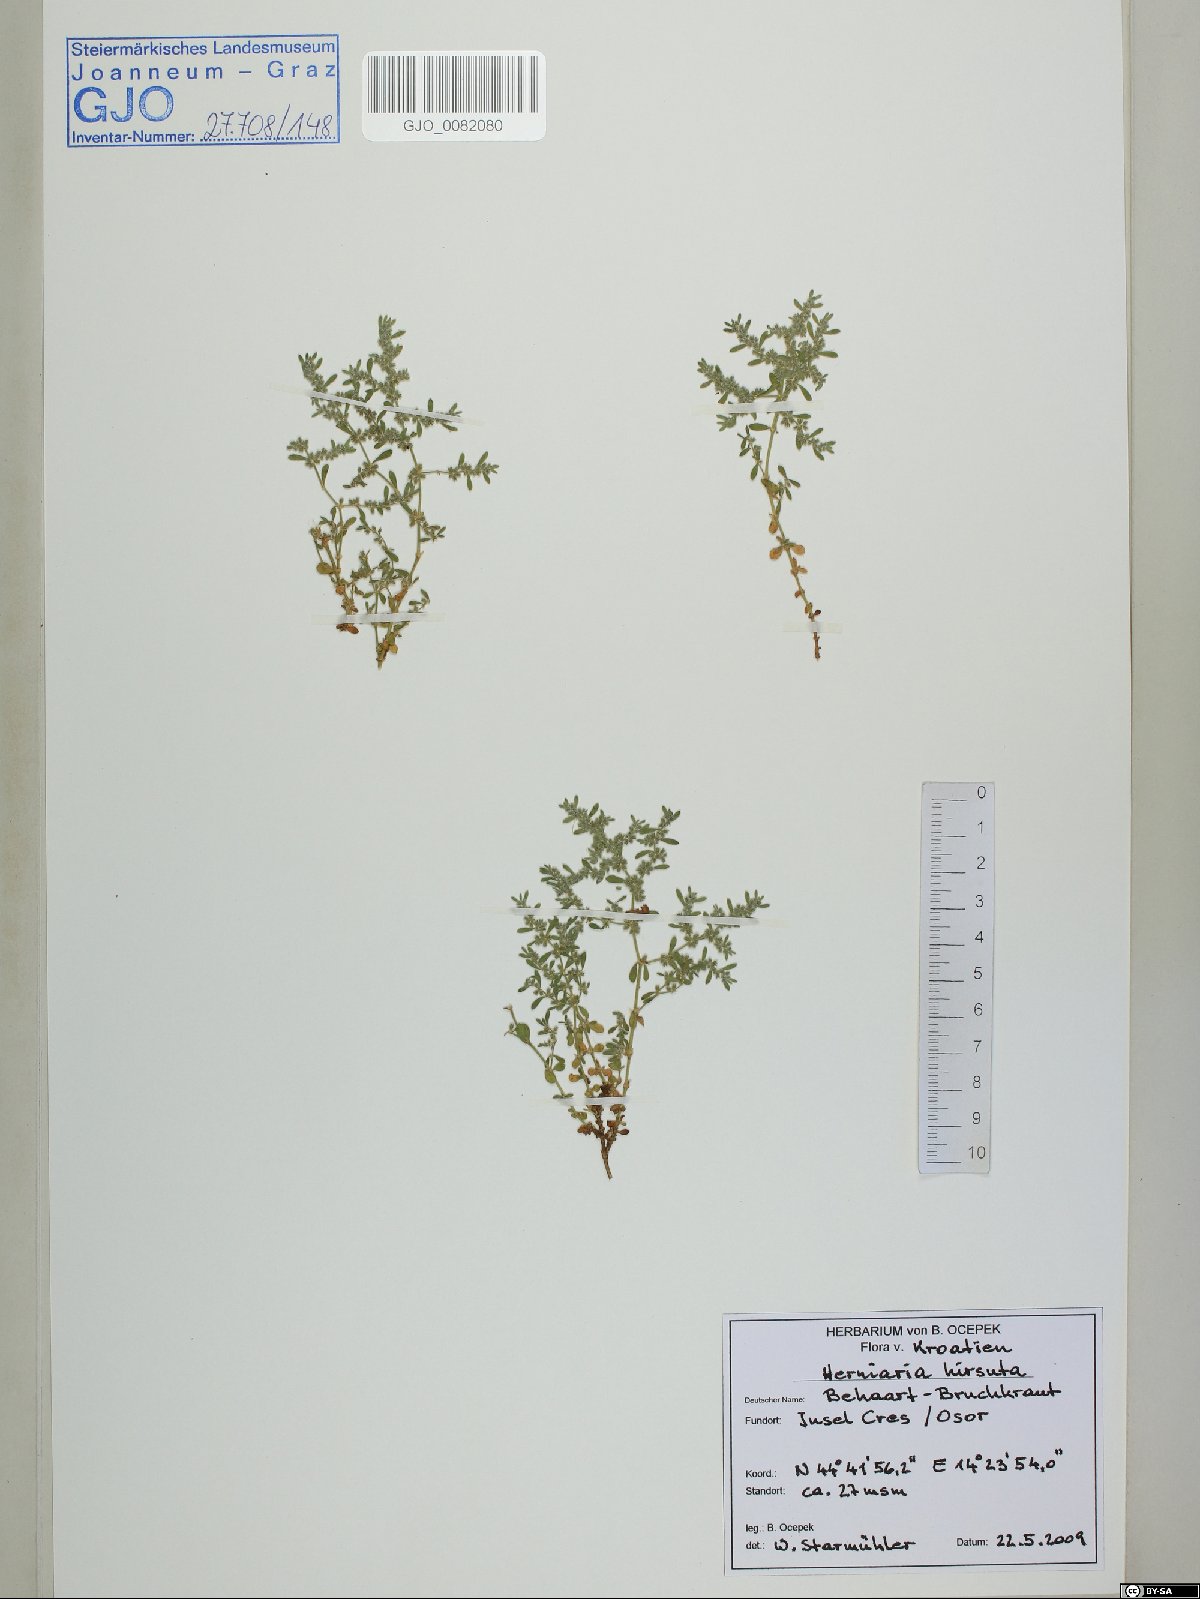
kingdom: Plantae
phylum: Tracheophyta
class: Magnoliopsida
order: Caryophyllales
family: Caryophyllaceae
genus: Herniaria
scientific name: Herniaria hirsuta
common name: Hairy rupturewort
